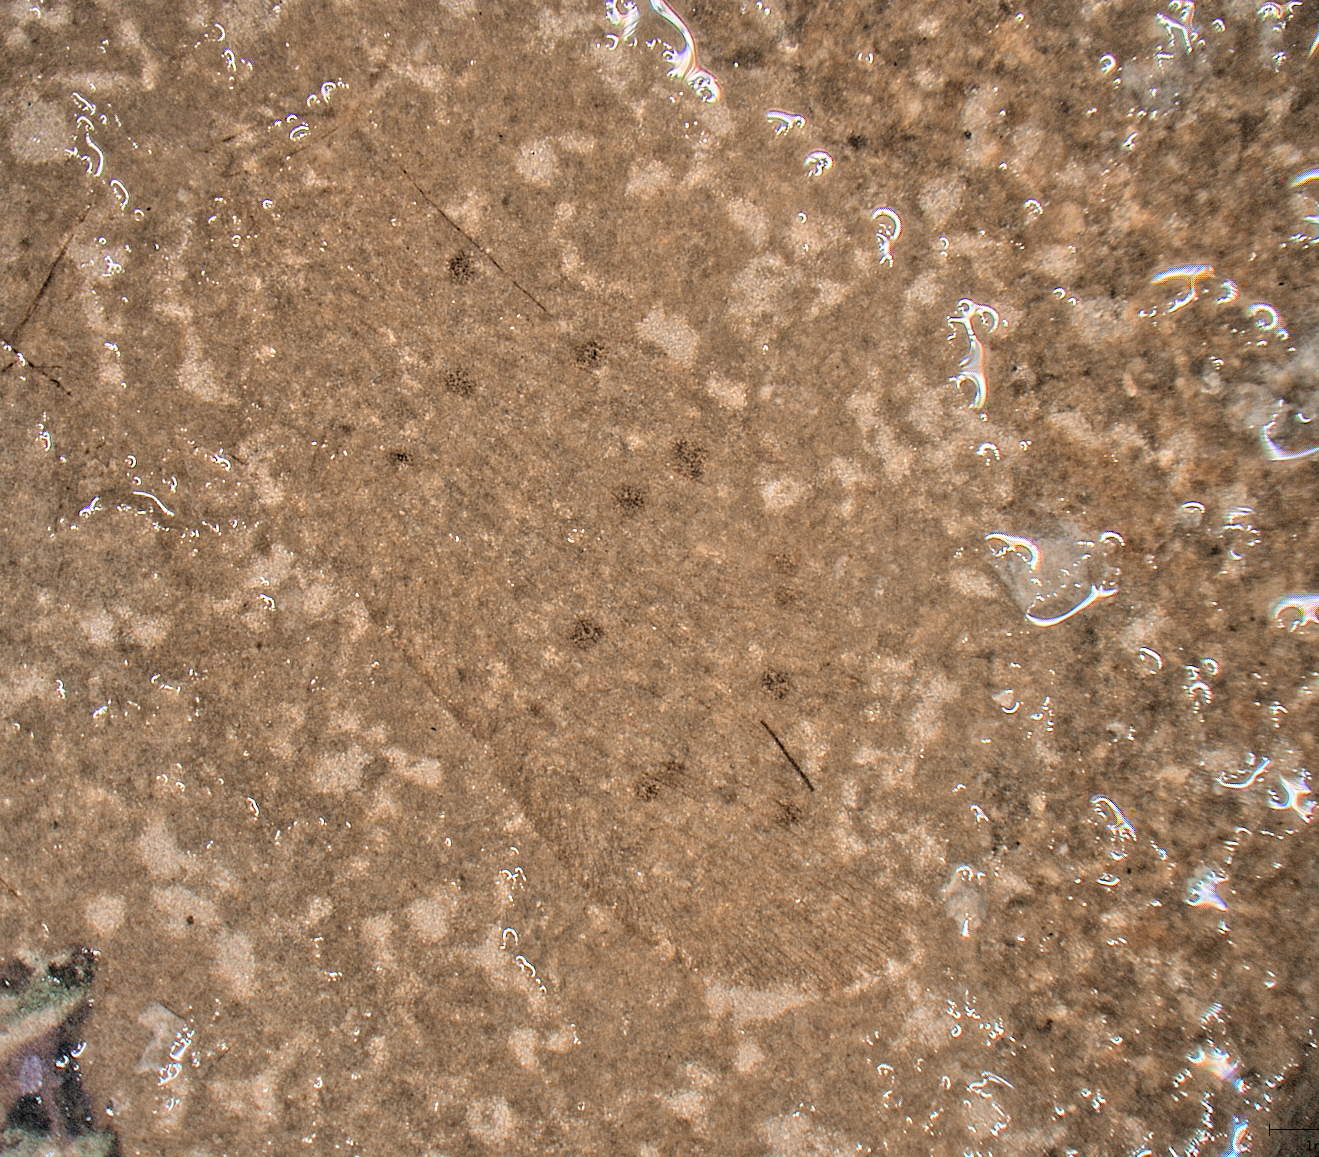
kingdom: Animalia
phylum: Arthropoda
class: Insecta
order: Neuroptera
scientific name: Neuroptera
